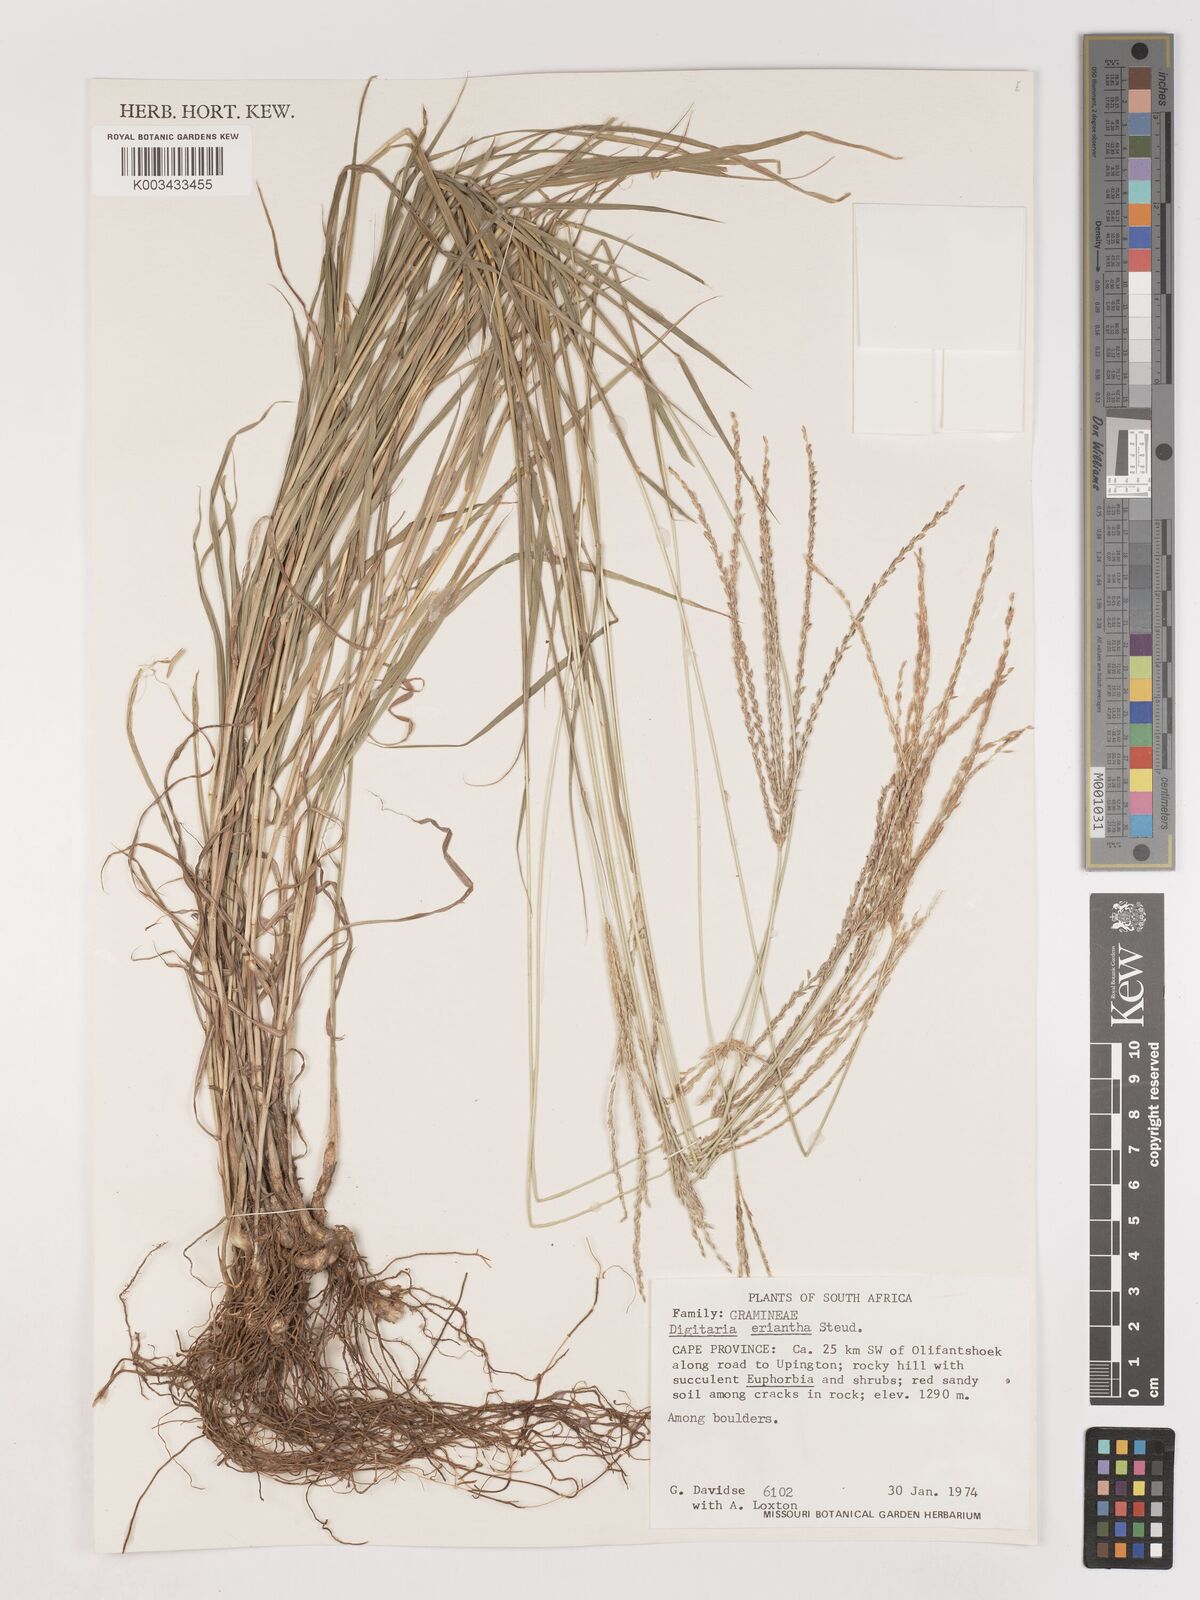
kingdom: Plantae
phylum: Tracheophyta
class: Liliopsida
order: Poales
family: Poaceae
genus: Digitaria
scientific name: Digitaria eriantha
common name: Digitgrass
